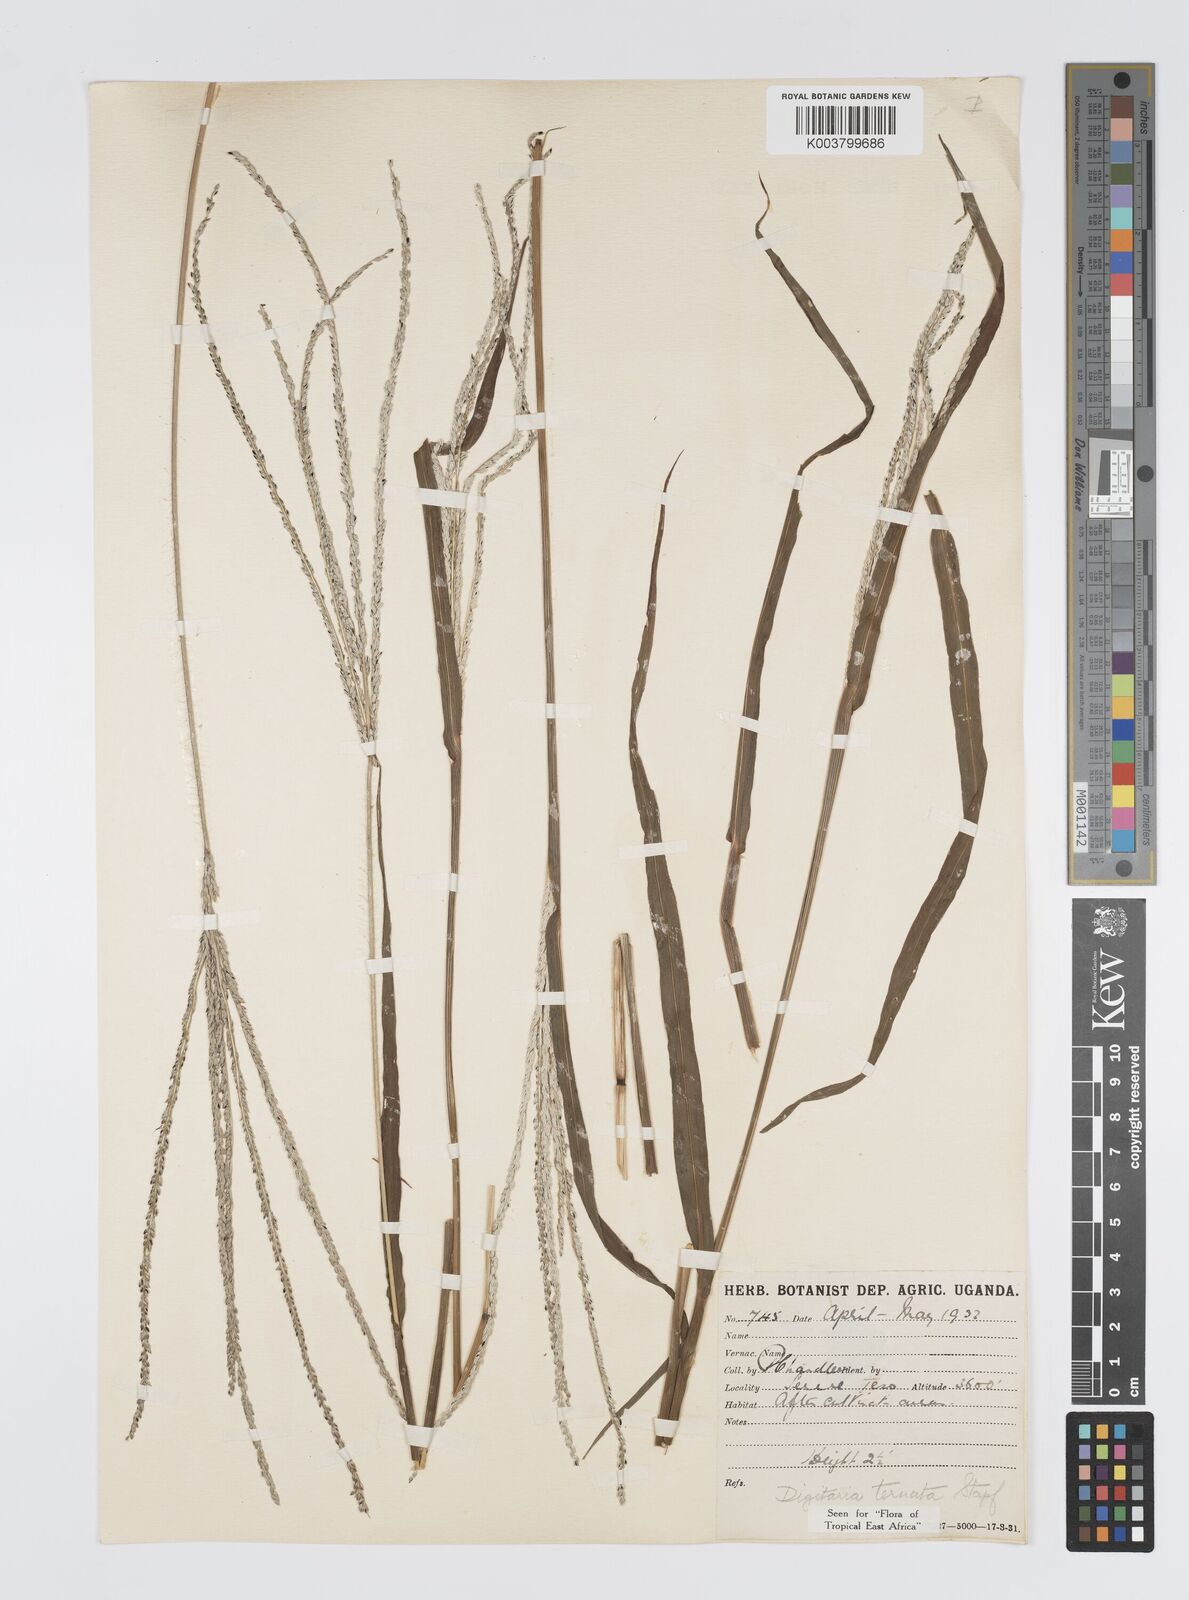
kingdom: Plantae
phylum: Tracheophyta
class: Liliopsida
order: Poales
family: Poaceae
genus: Digitaria
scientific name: Digitaria ternata
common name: Blackseed crabgrass
